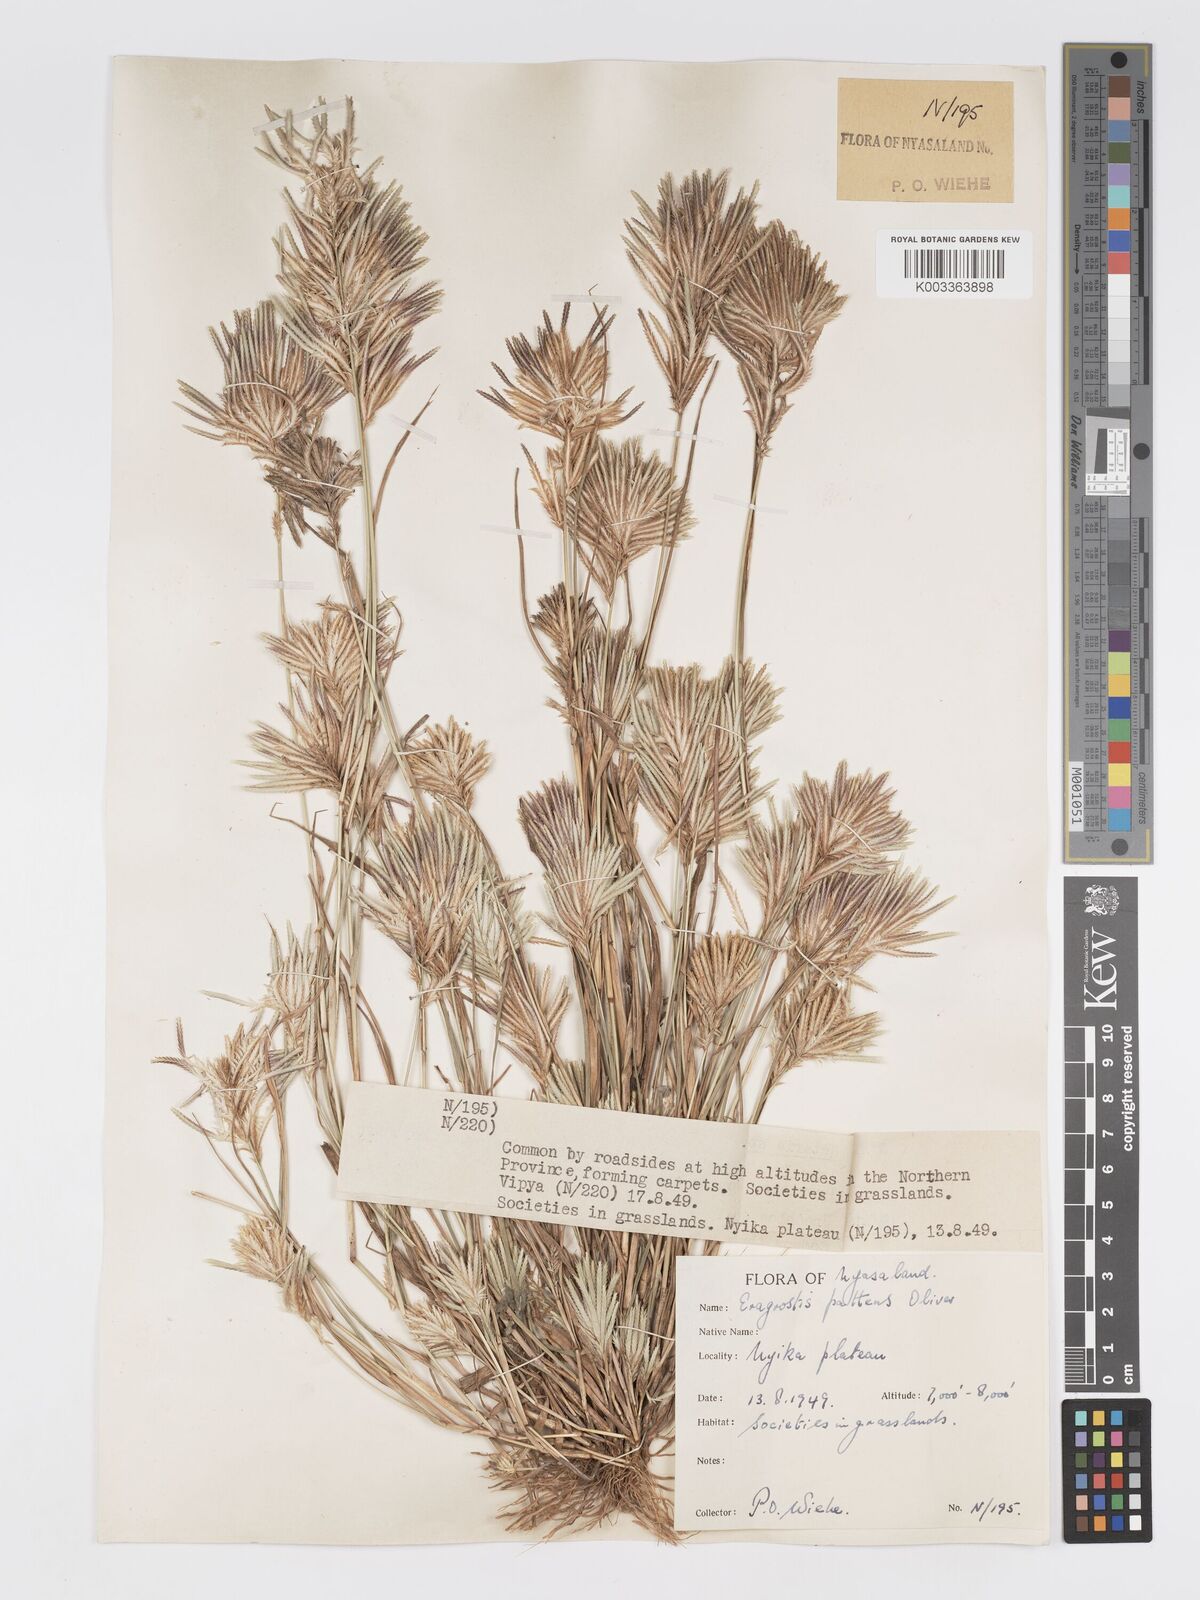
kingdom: Plantae
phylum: Tracheophyta
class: Liliopsida
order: Poales
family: Poaceae
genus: Eragrostis
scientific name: Eragrostis patens
